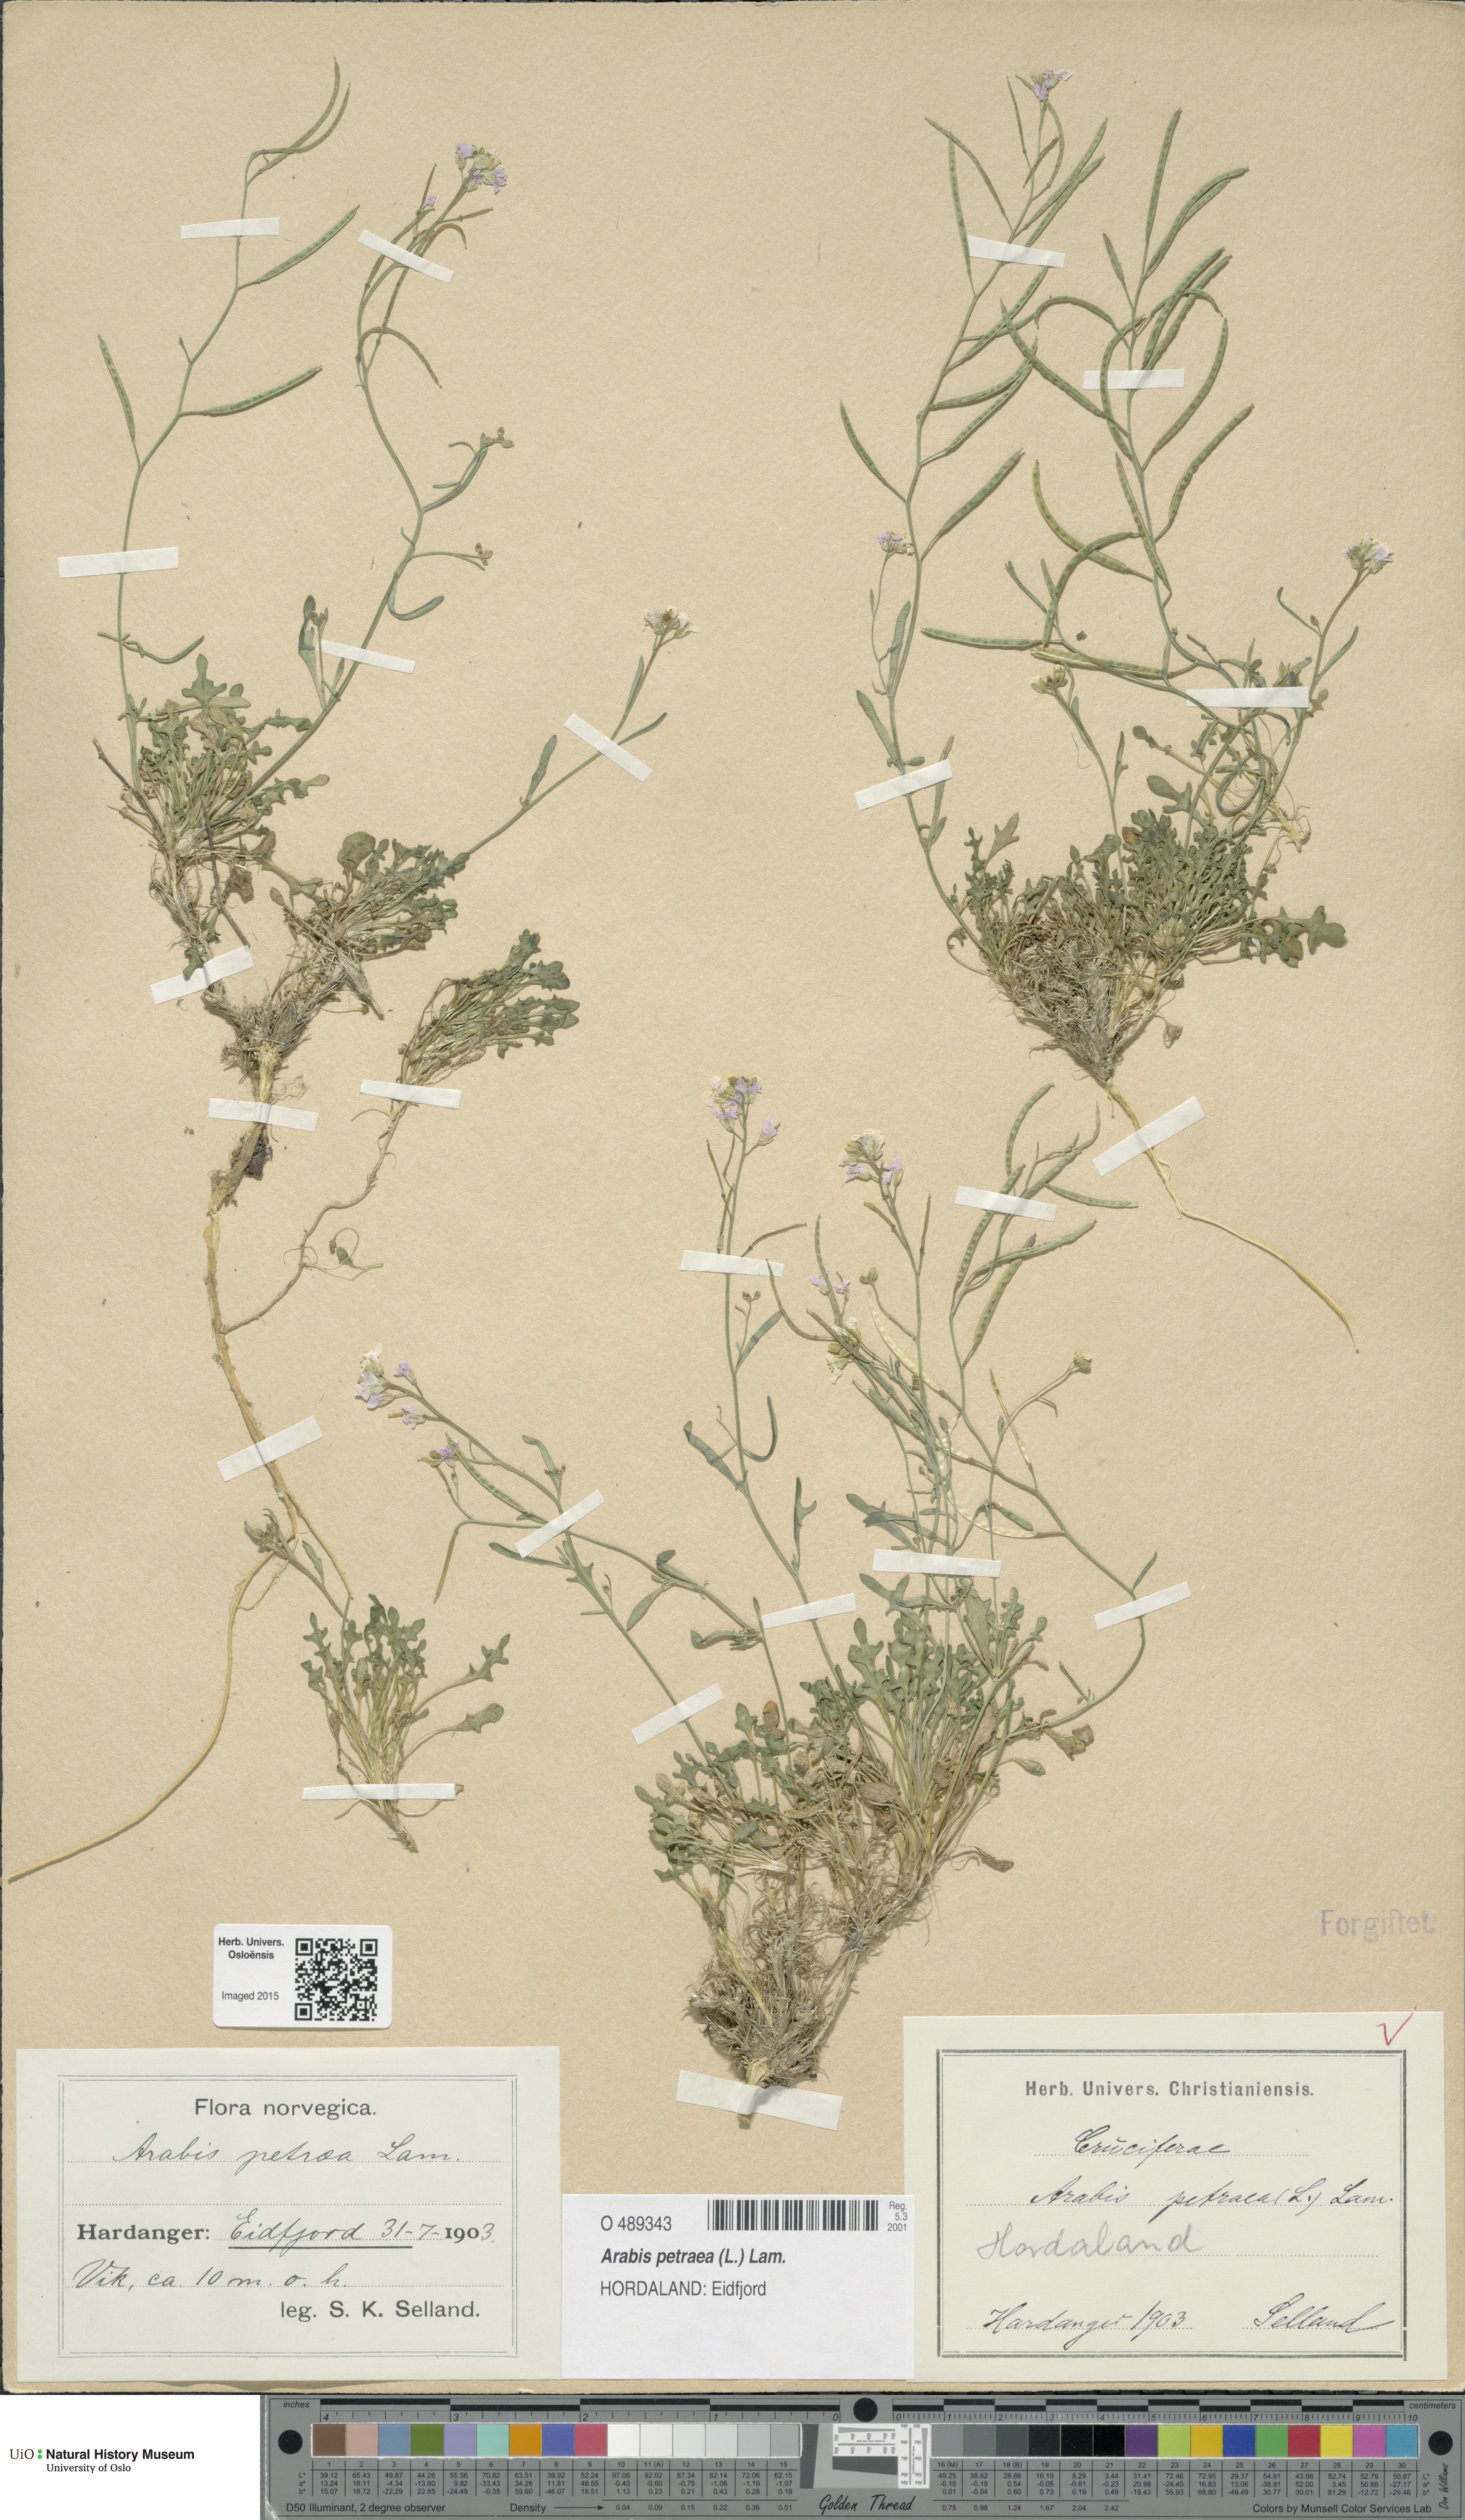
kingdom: Plantae
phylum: Tracheophyta
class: Magnoliopsida
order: Brassicales
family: Brassicaceae
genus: Arabidopsis
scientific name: Arabidopsis petraea
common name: Northern rock-cress
